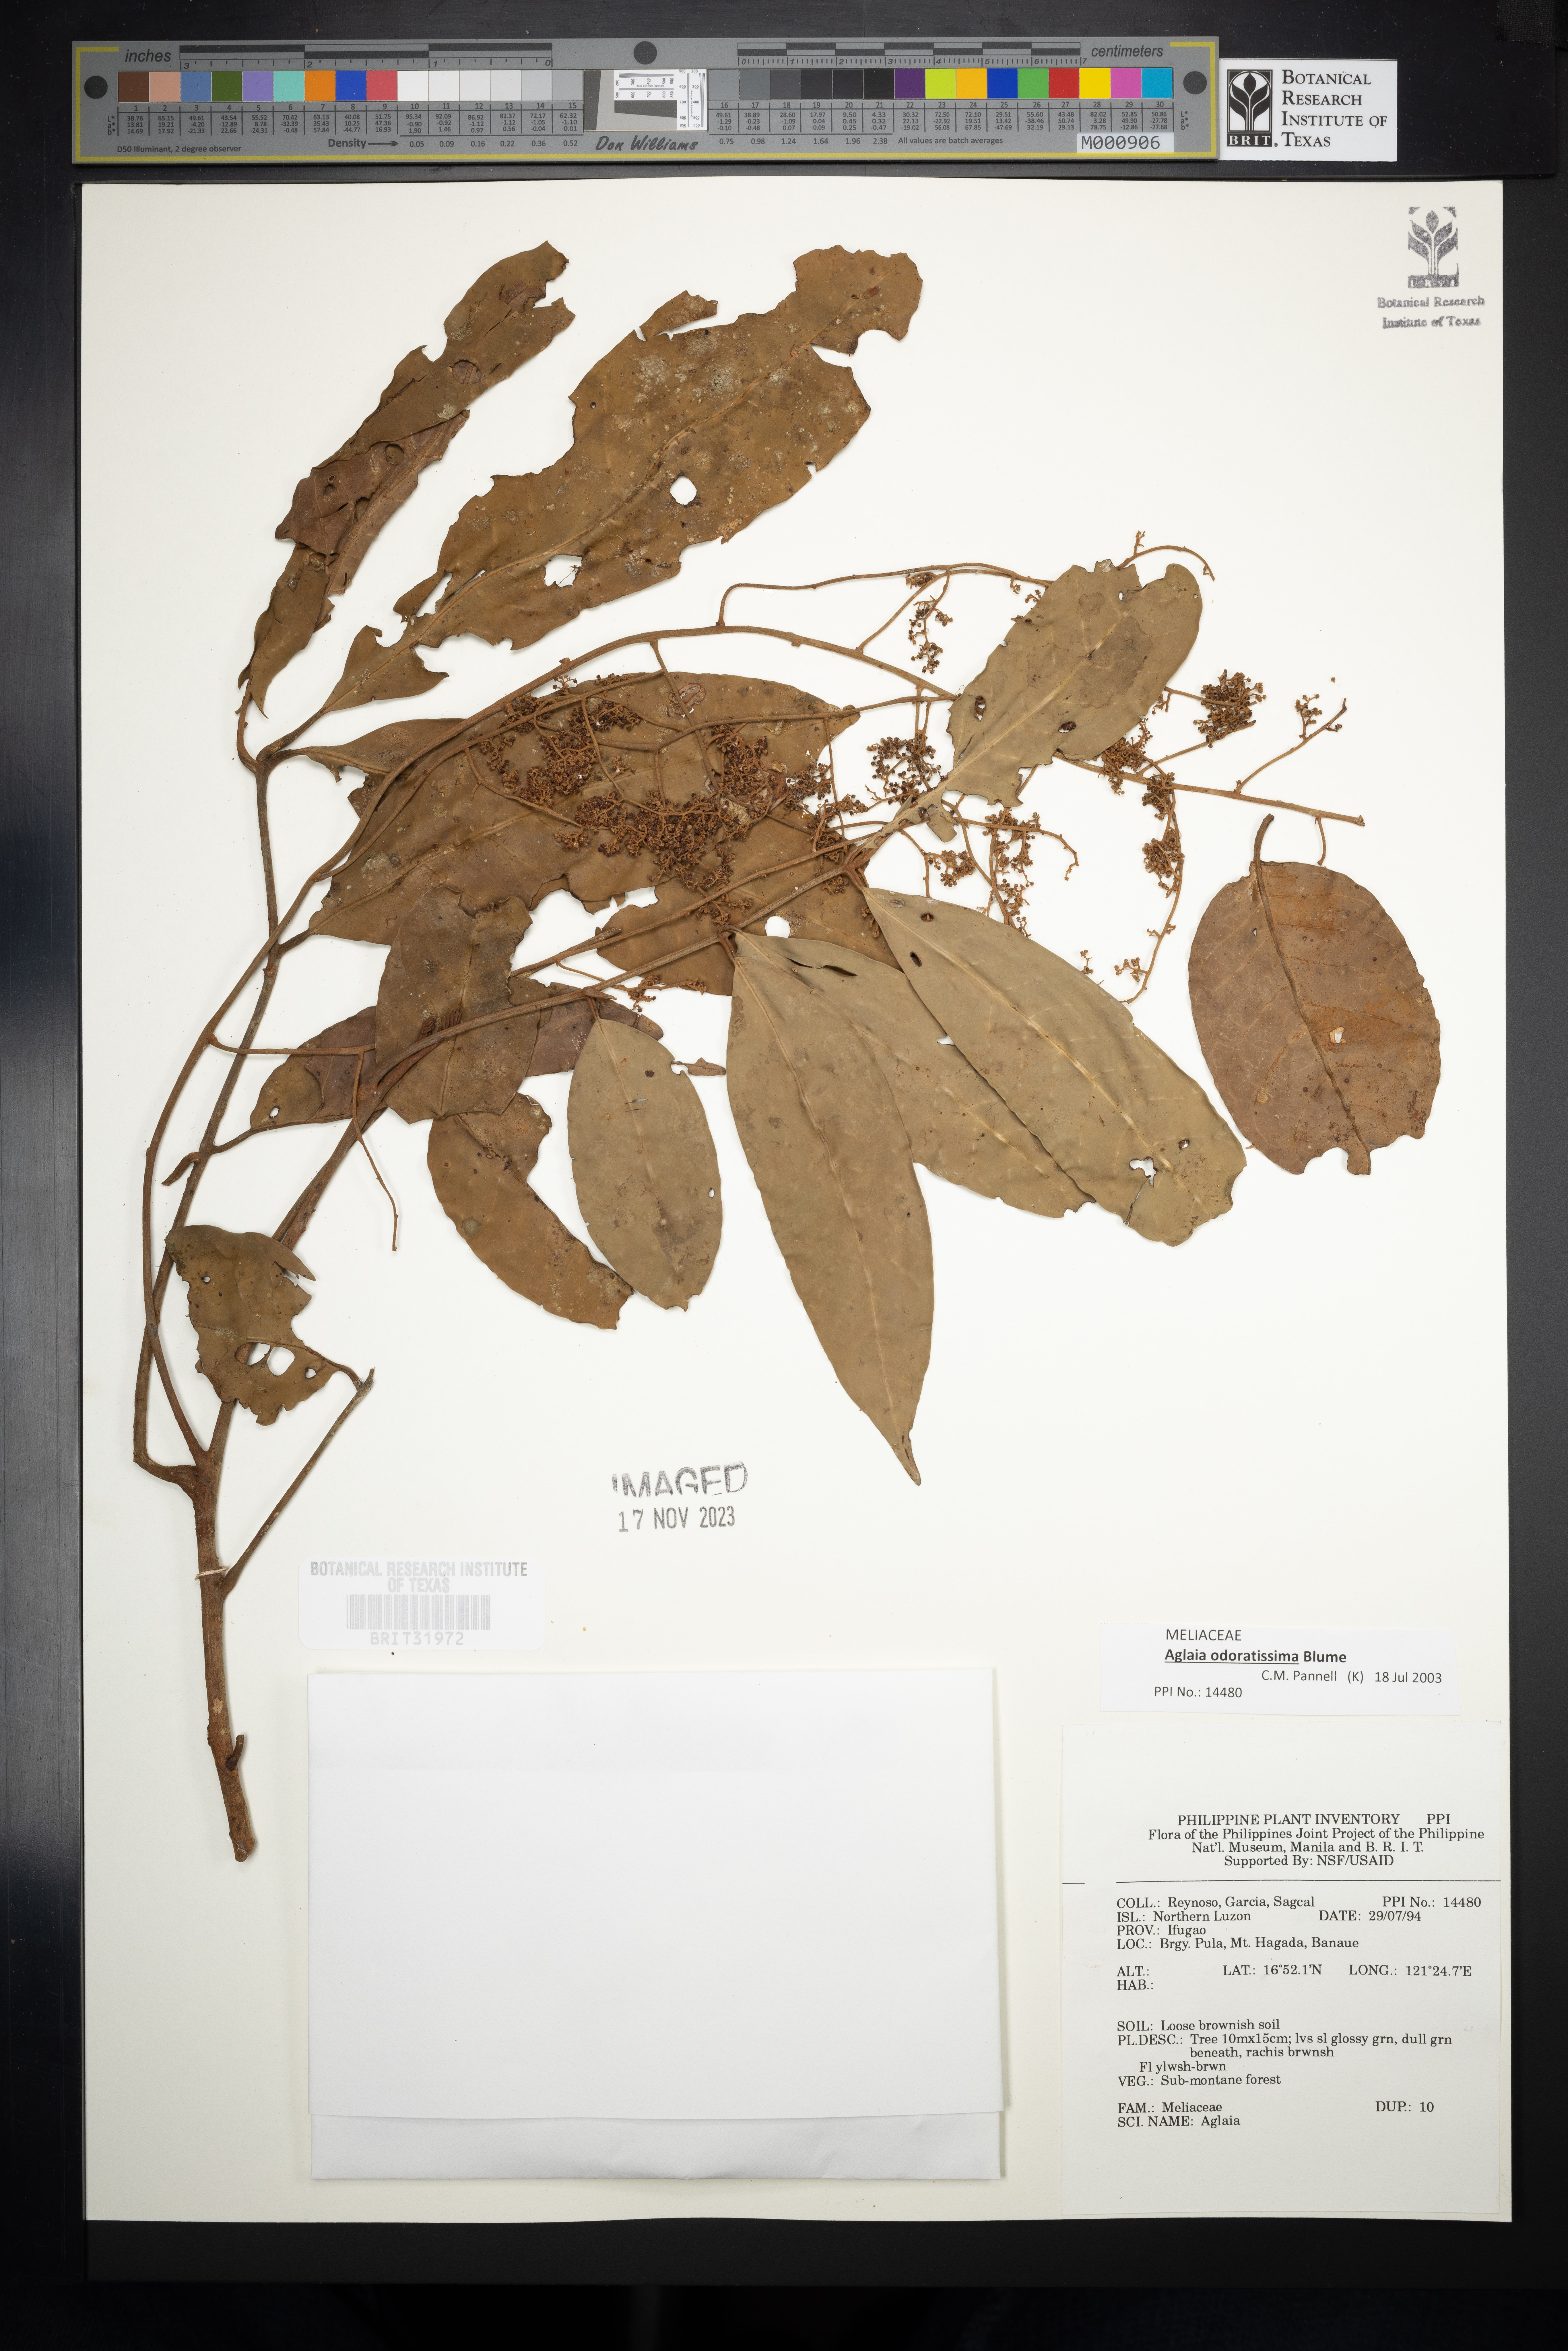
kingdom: Plantae
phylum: Tracheophyta
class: Magnoliopsida
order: Sapindales
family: Meliaceae
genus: Aglaia
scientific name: Aglaia
